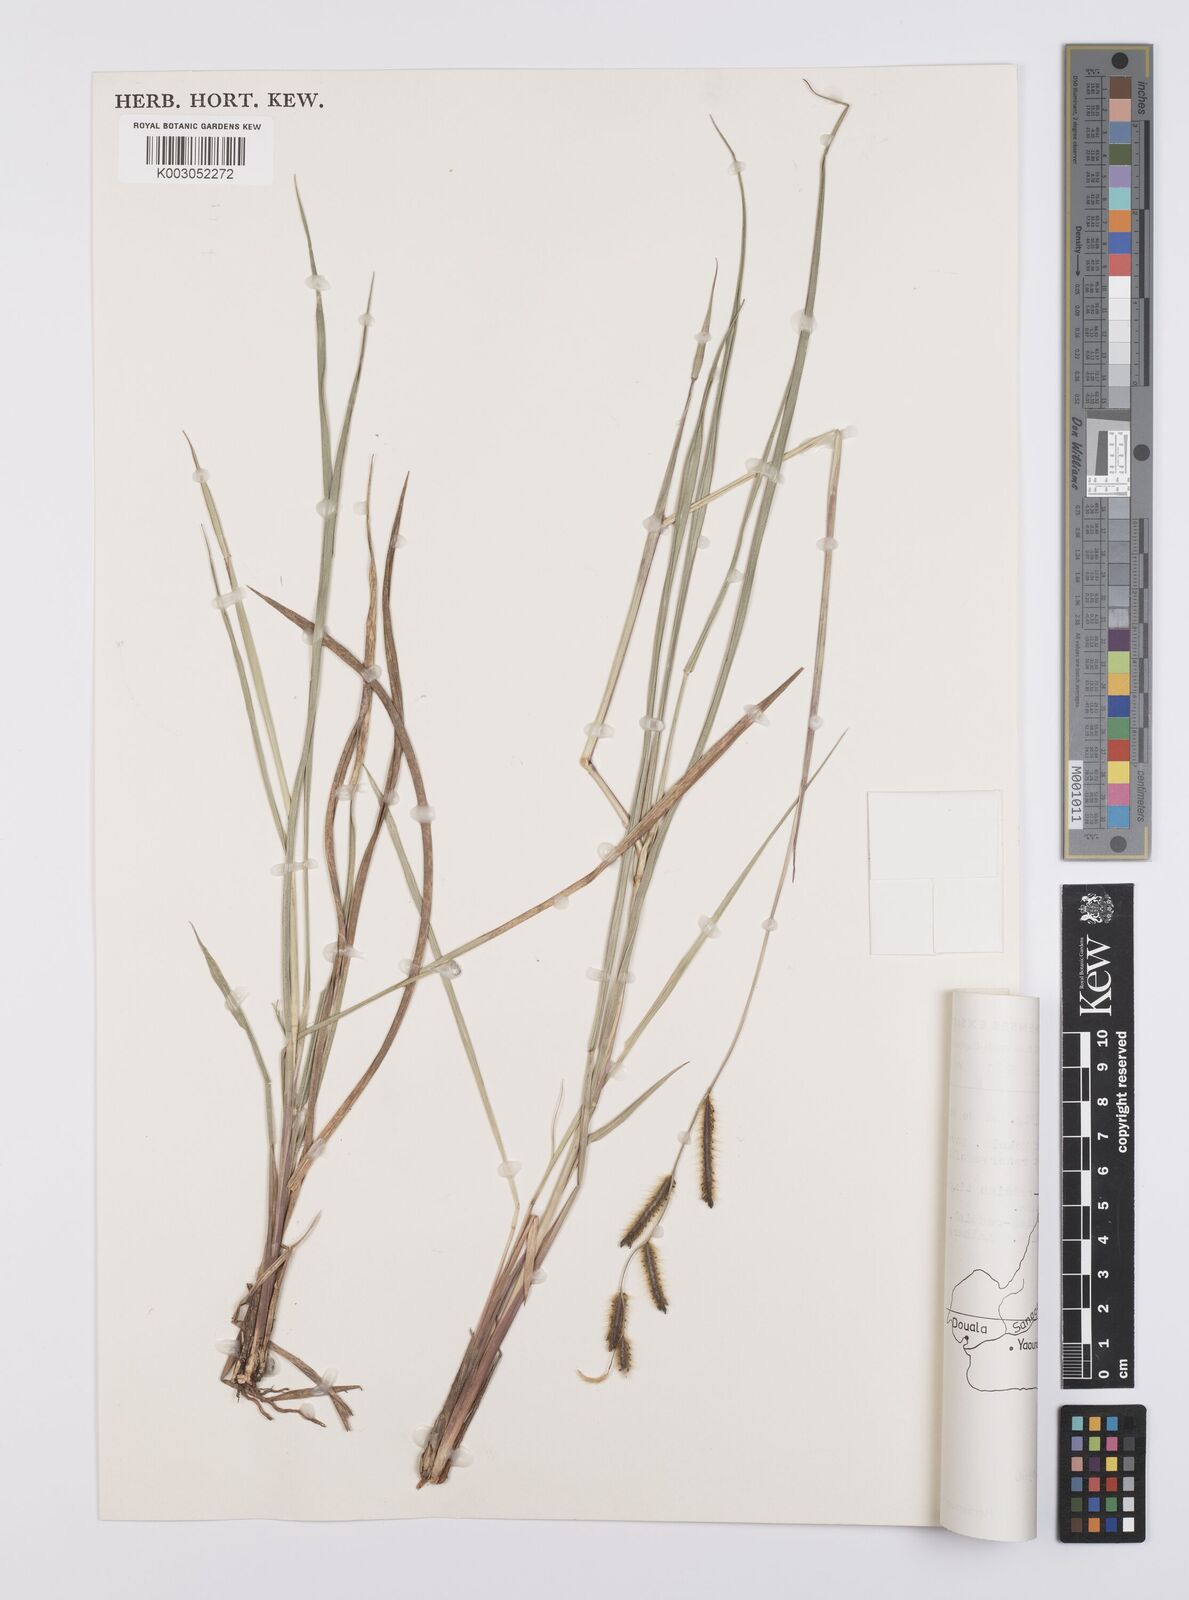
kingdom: Plantae
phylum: Tracheophyta
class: Liliopsida
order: Poales
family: Poaceae
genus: Urochloa
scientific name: Urochloa jubata
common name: Buffalograss
